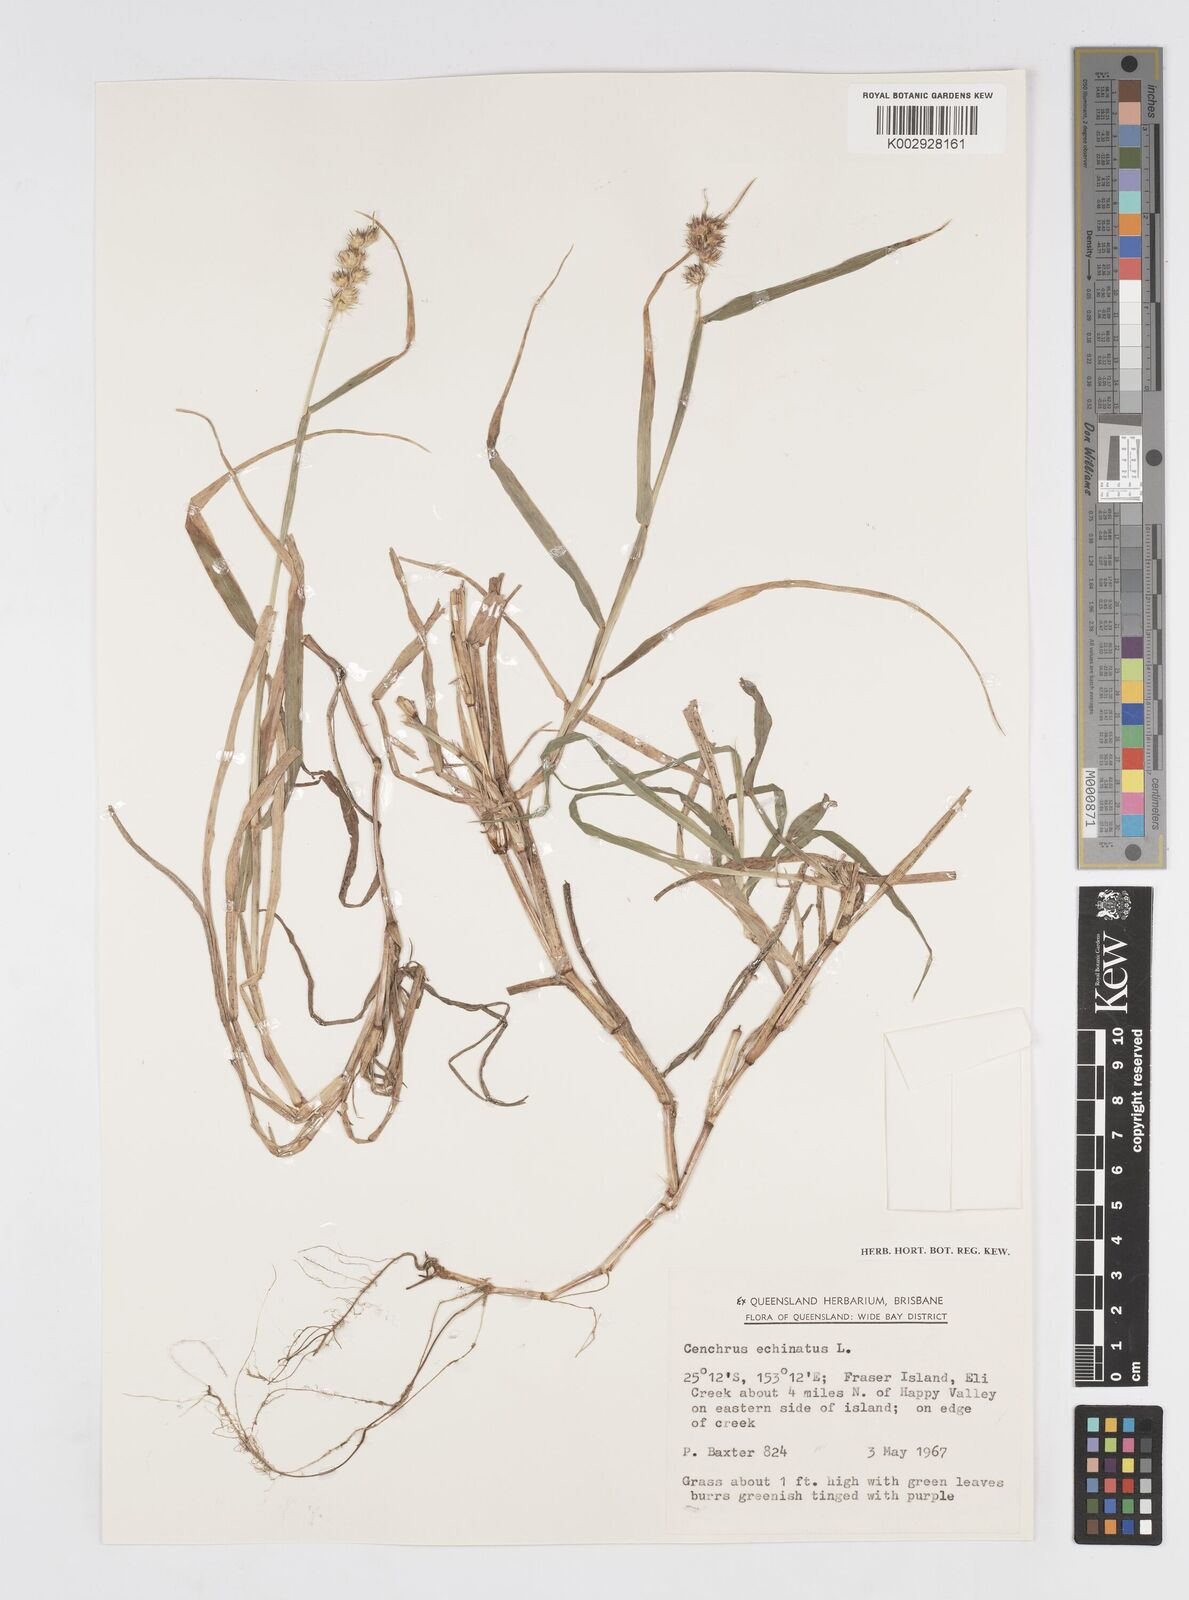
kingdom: Plantae
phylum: Tracheophyta
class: Liliopsida
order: Poales
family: Poaceae
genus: Cenchrus
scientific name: Cenchrus echinatus
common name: Southern sandbur
